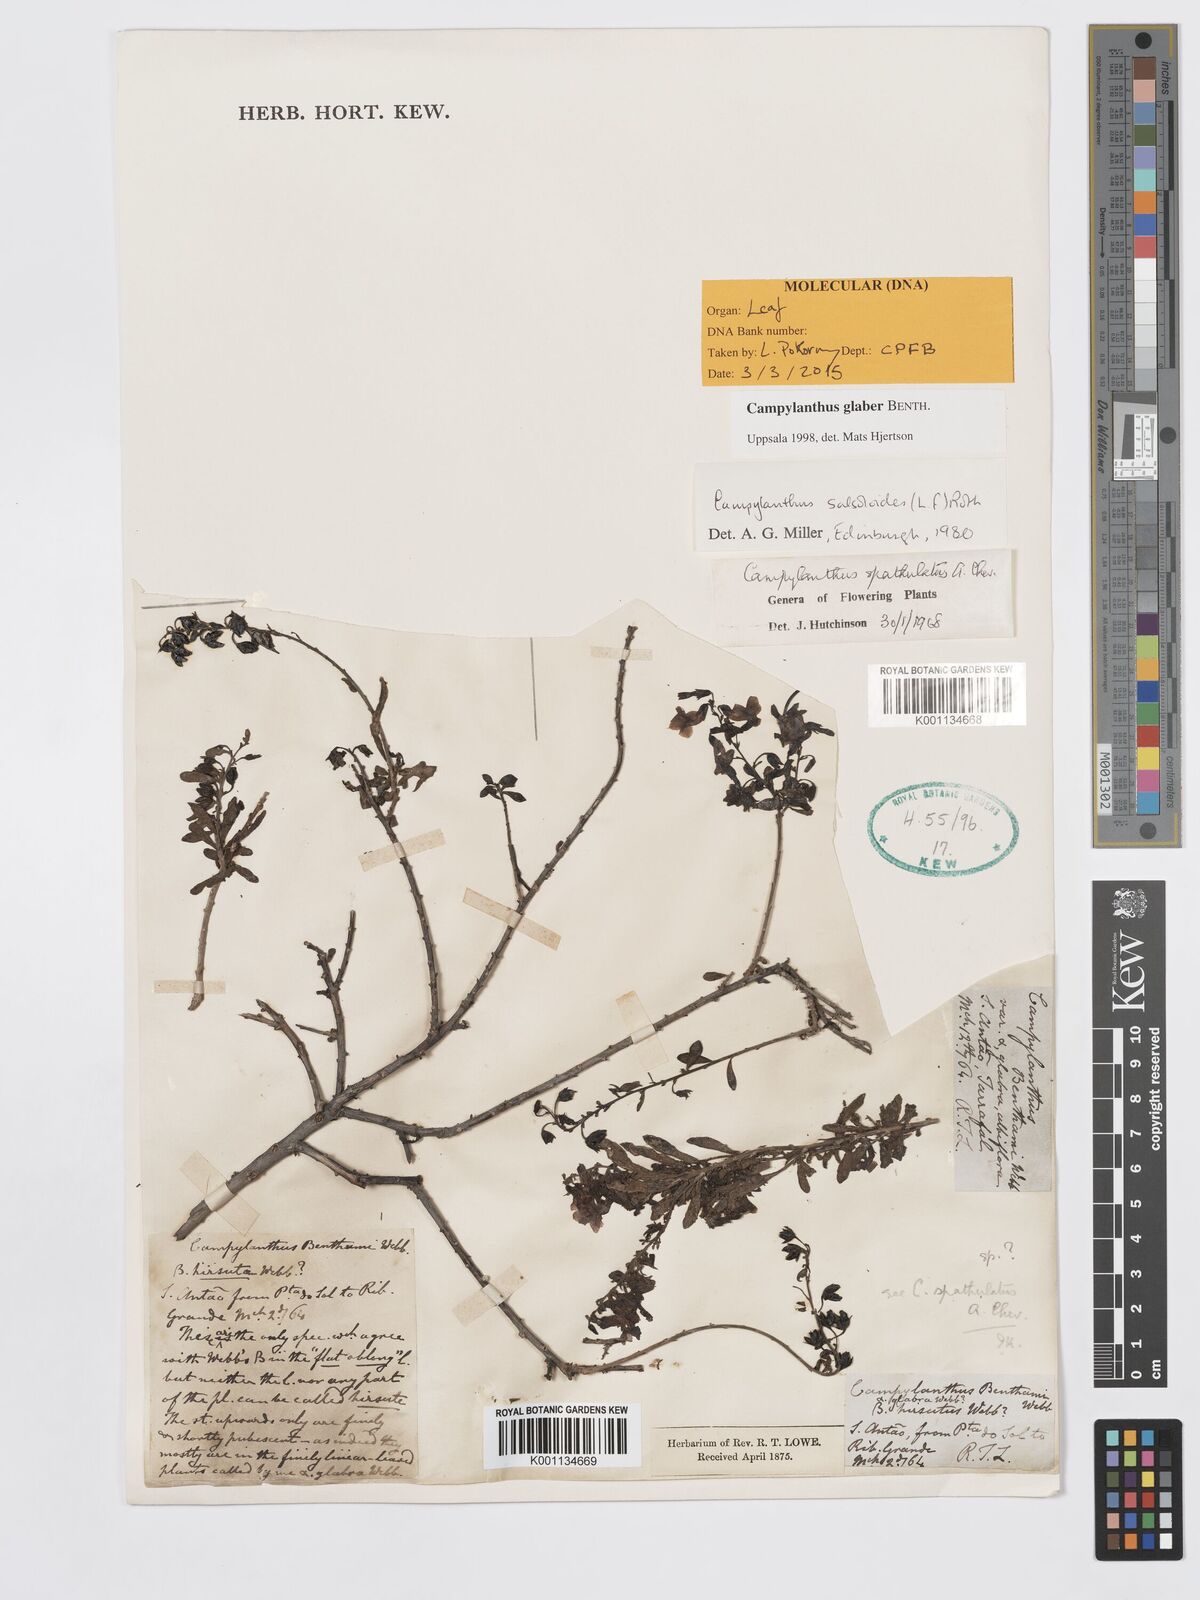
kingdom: Plantae
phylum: Tracheophyta
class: Magnoliopsida
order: Lamiales
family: Plantaginaceae
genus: Campylanthus
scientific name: Campylanthus glaber
